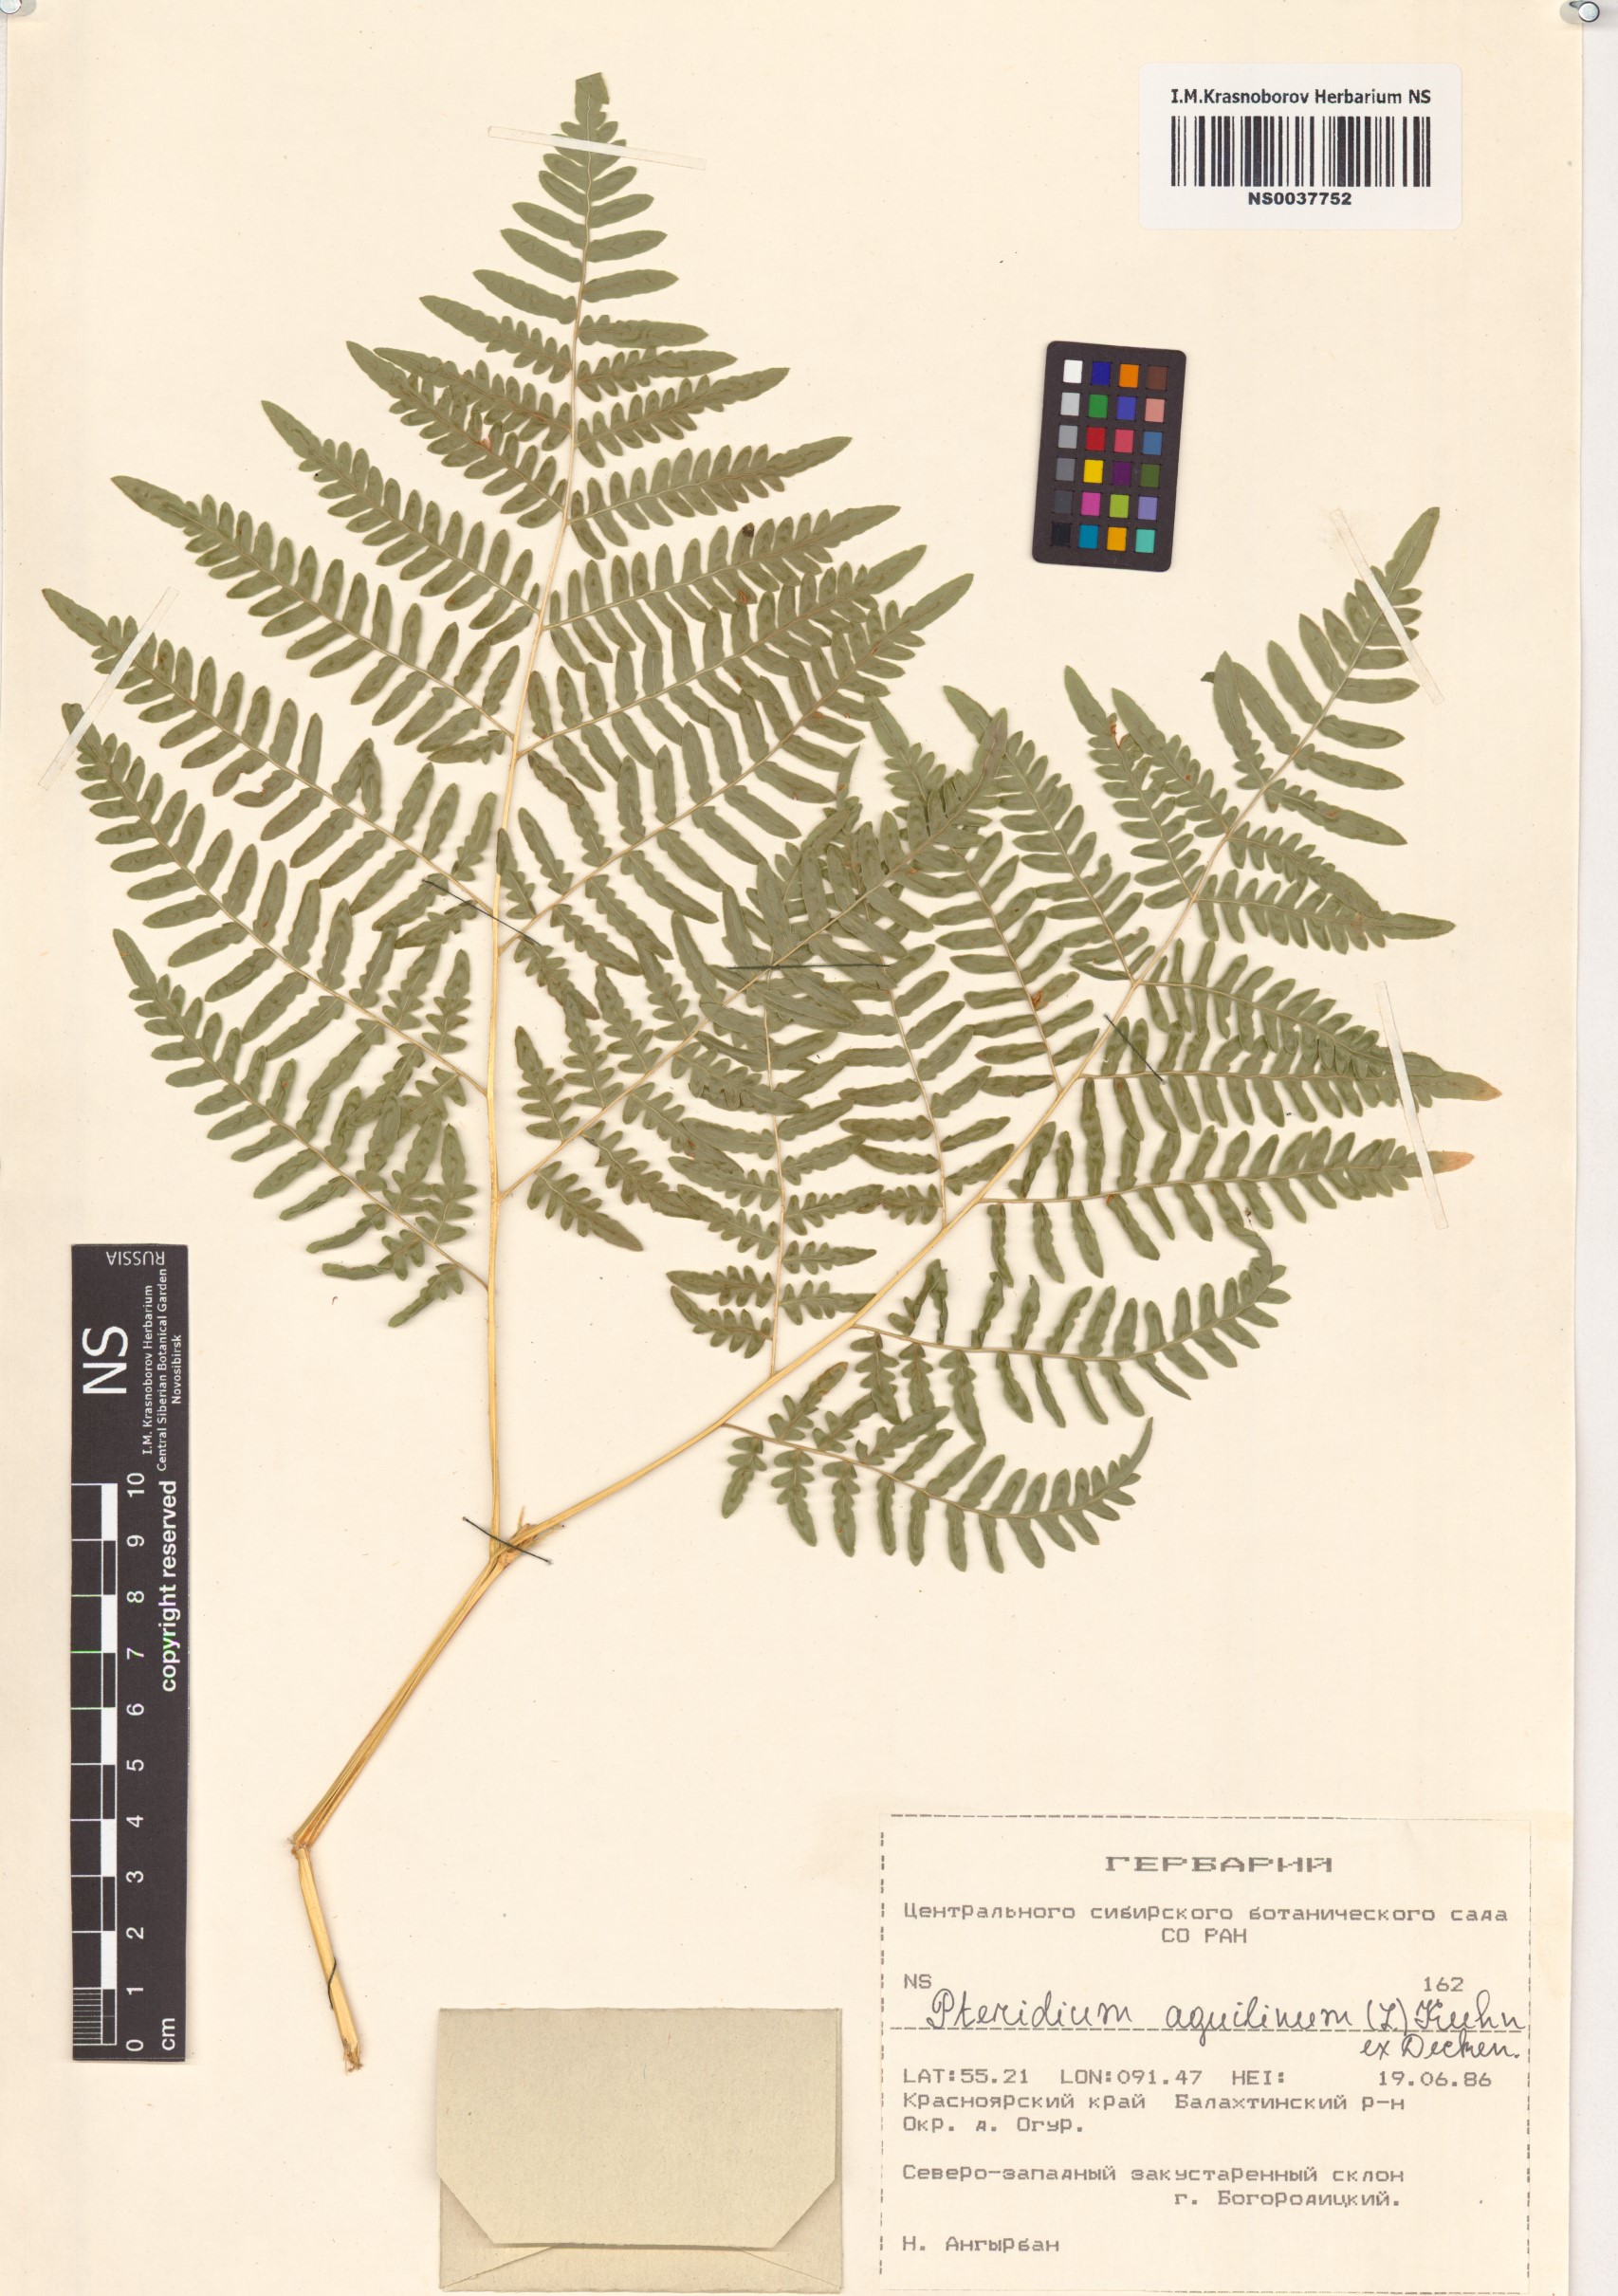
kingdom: Plantae
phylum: Tracheophyta
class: Polypodiopsida
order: Polypodiales
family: Dennstaedtiaceae
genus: Pteridium
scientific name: Pteridium aquilinum
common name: Bracken
